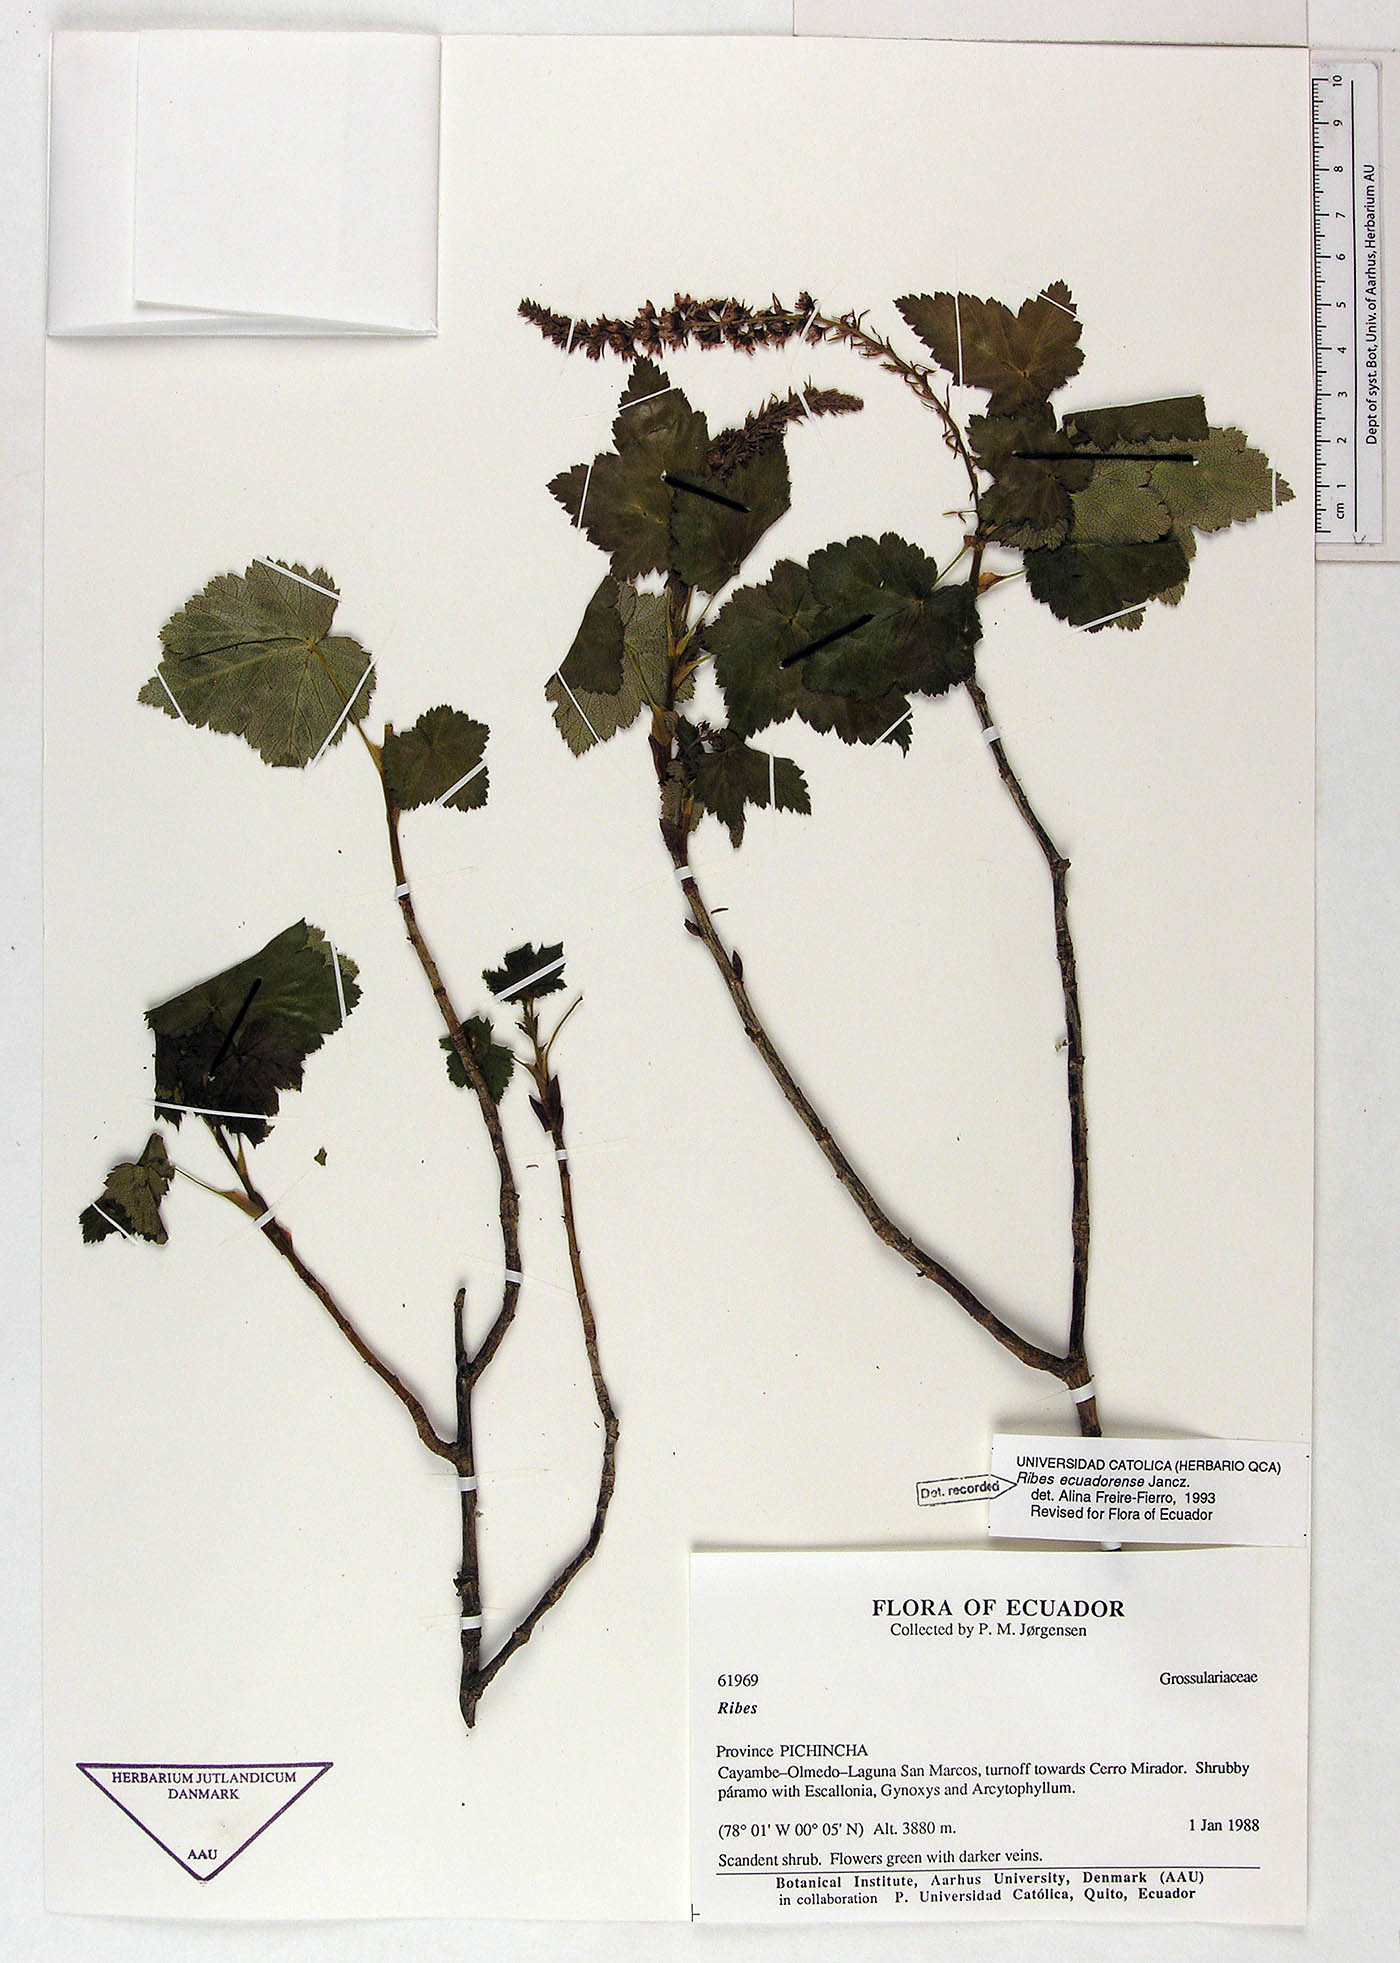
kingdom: Plantae
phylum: Tracheophyta
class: Magnoliopsida
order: Saxifragales
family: Grossulariaceae
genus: Ribes
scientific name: Ribes ecuadorense
